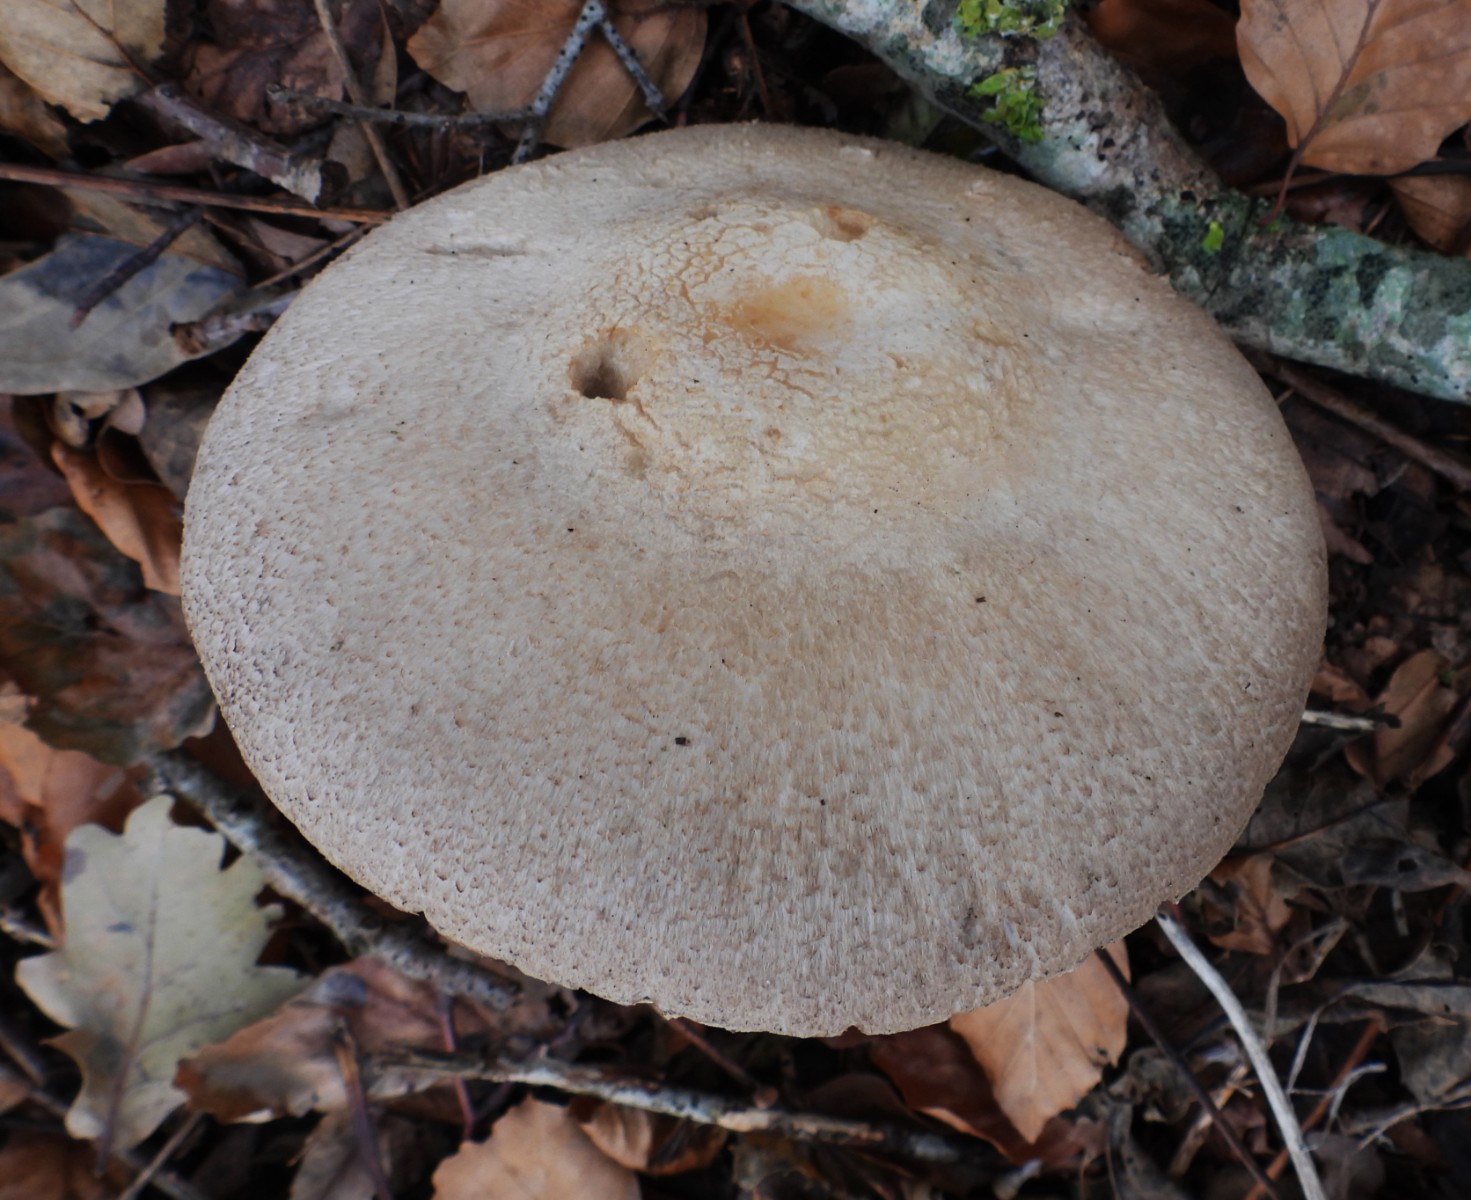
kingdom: Fungi
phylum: Basidiomycota
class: Agaricomycetes
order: Agaricales
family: Agaricaceae
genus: Agaricus
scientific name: Agaricus
